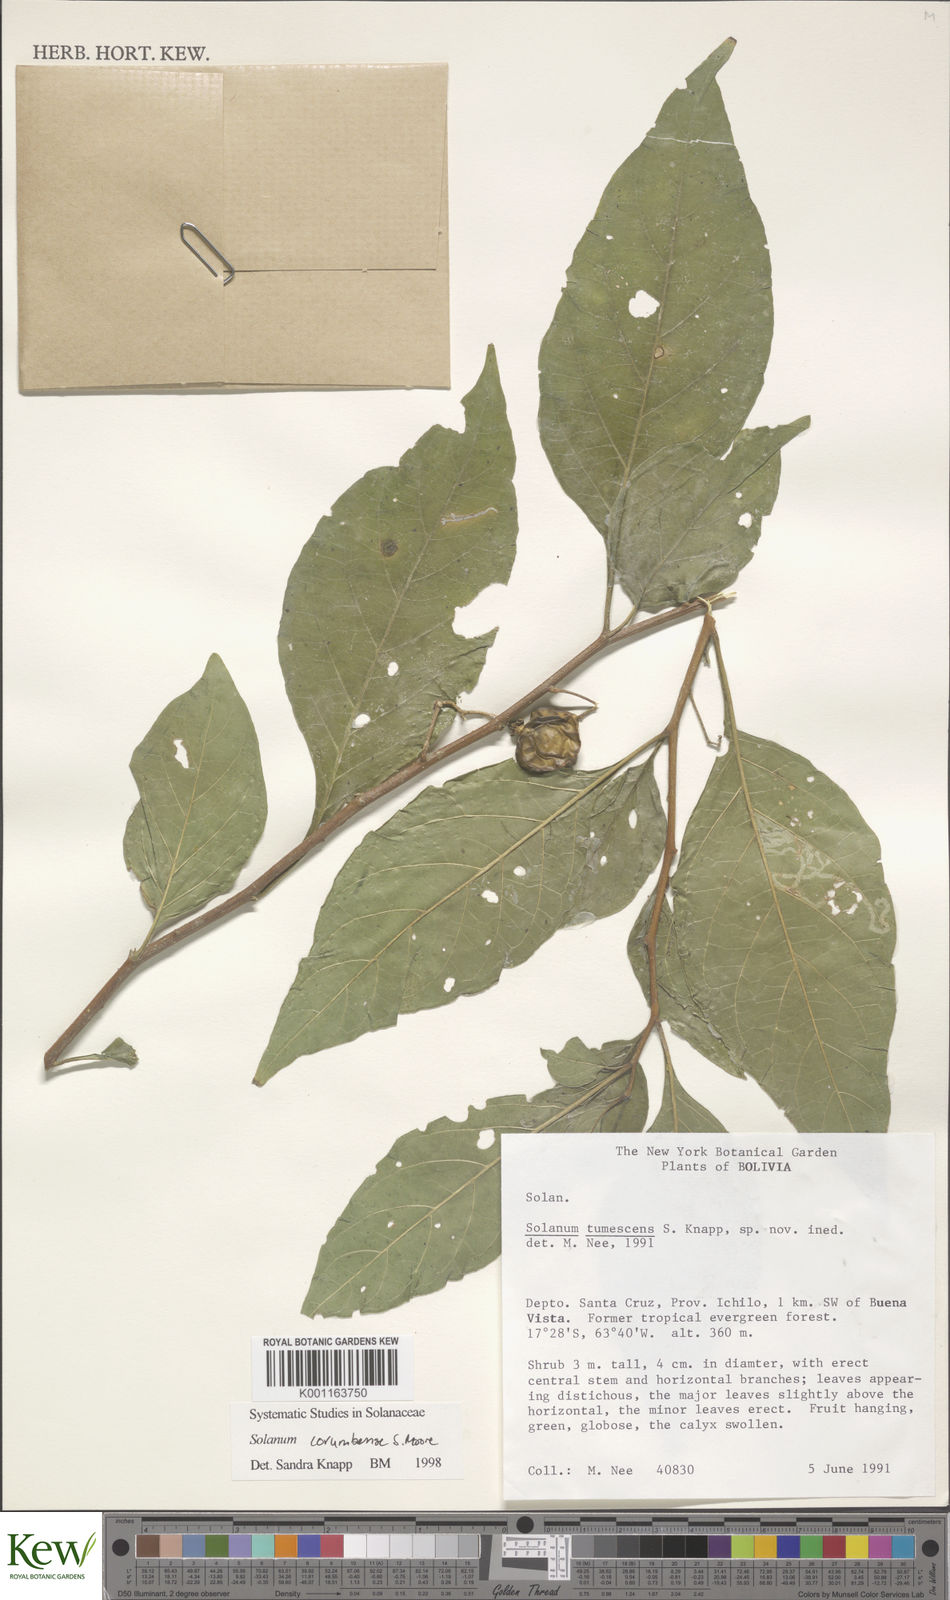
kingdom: Plantae
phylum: Tracheophyta
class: Magnoliopsida
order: Solanales
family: Solanaceae
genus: Solanum
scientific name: Solanum corumbense
